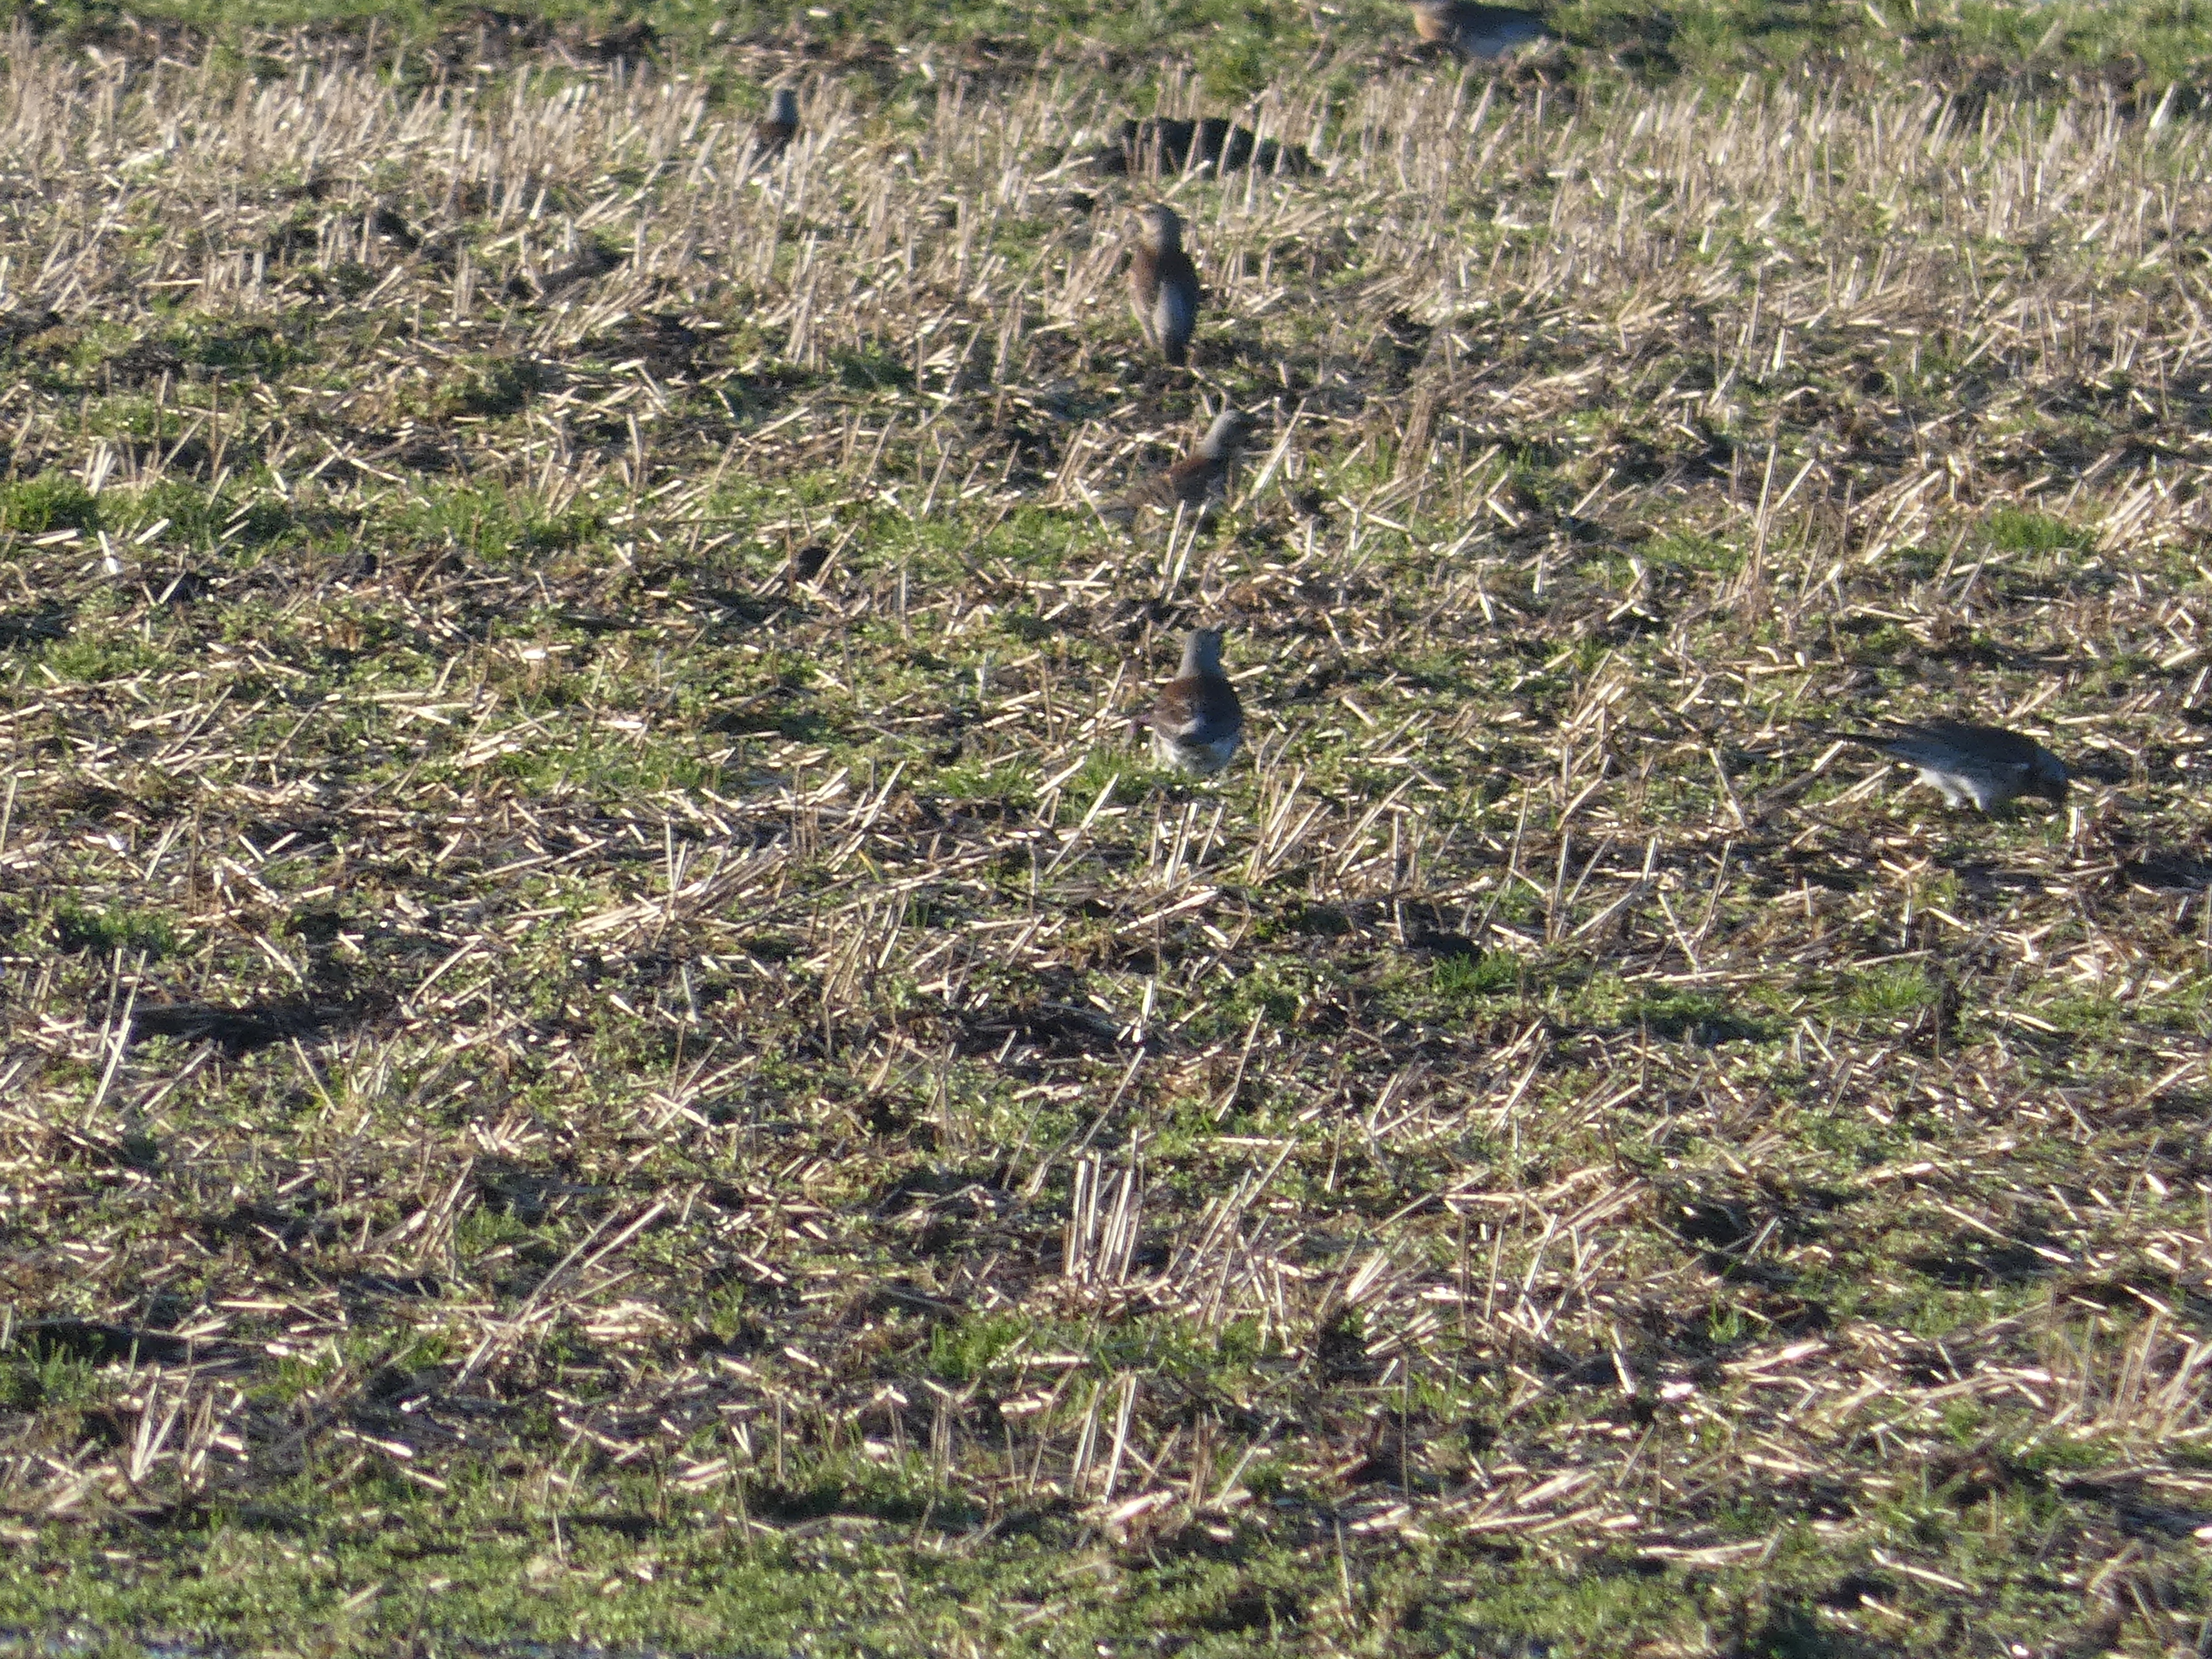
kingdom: Animalia
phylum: Chordata
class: Aves
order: Passeriformes
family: Turdidae
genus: Turdus
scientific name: Turdus pilaris
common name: Sjagger
